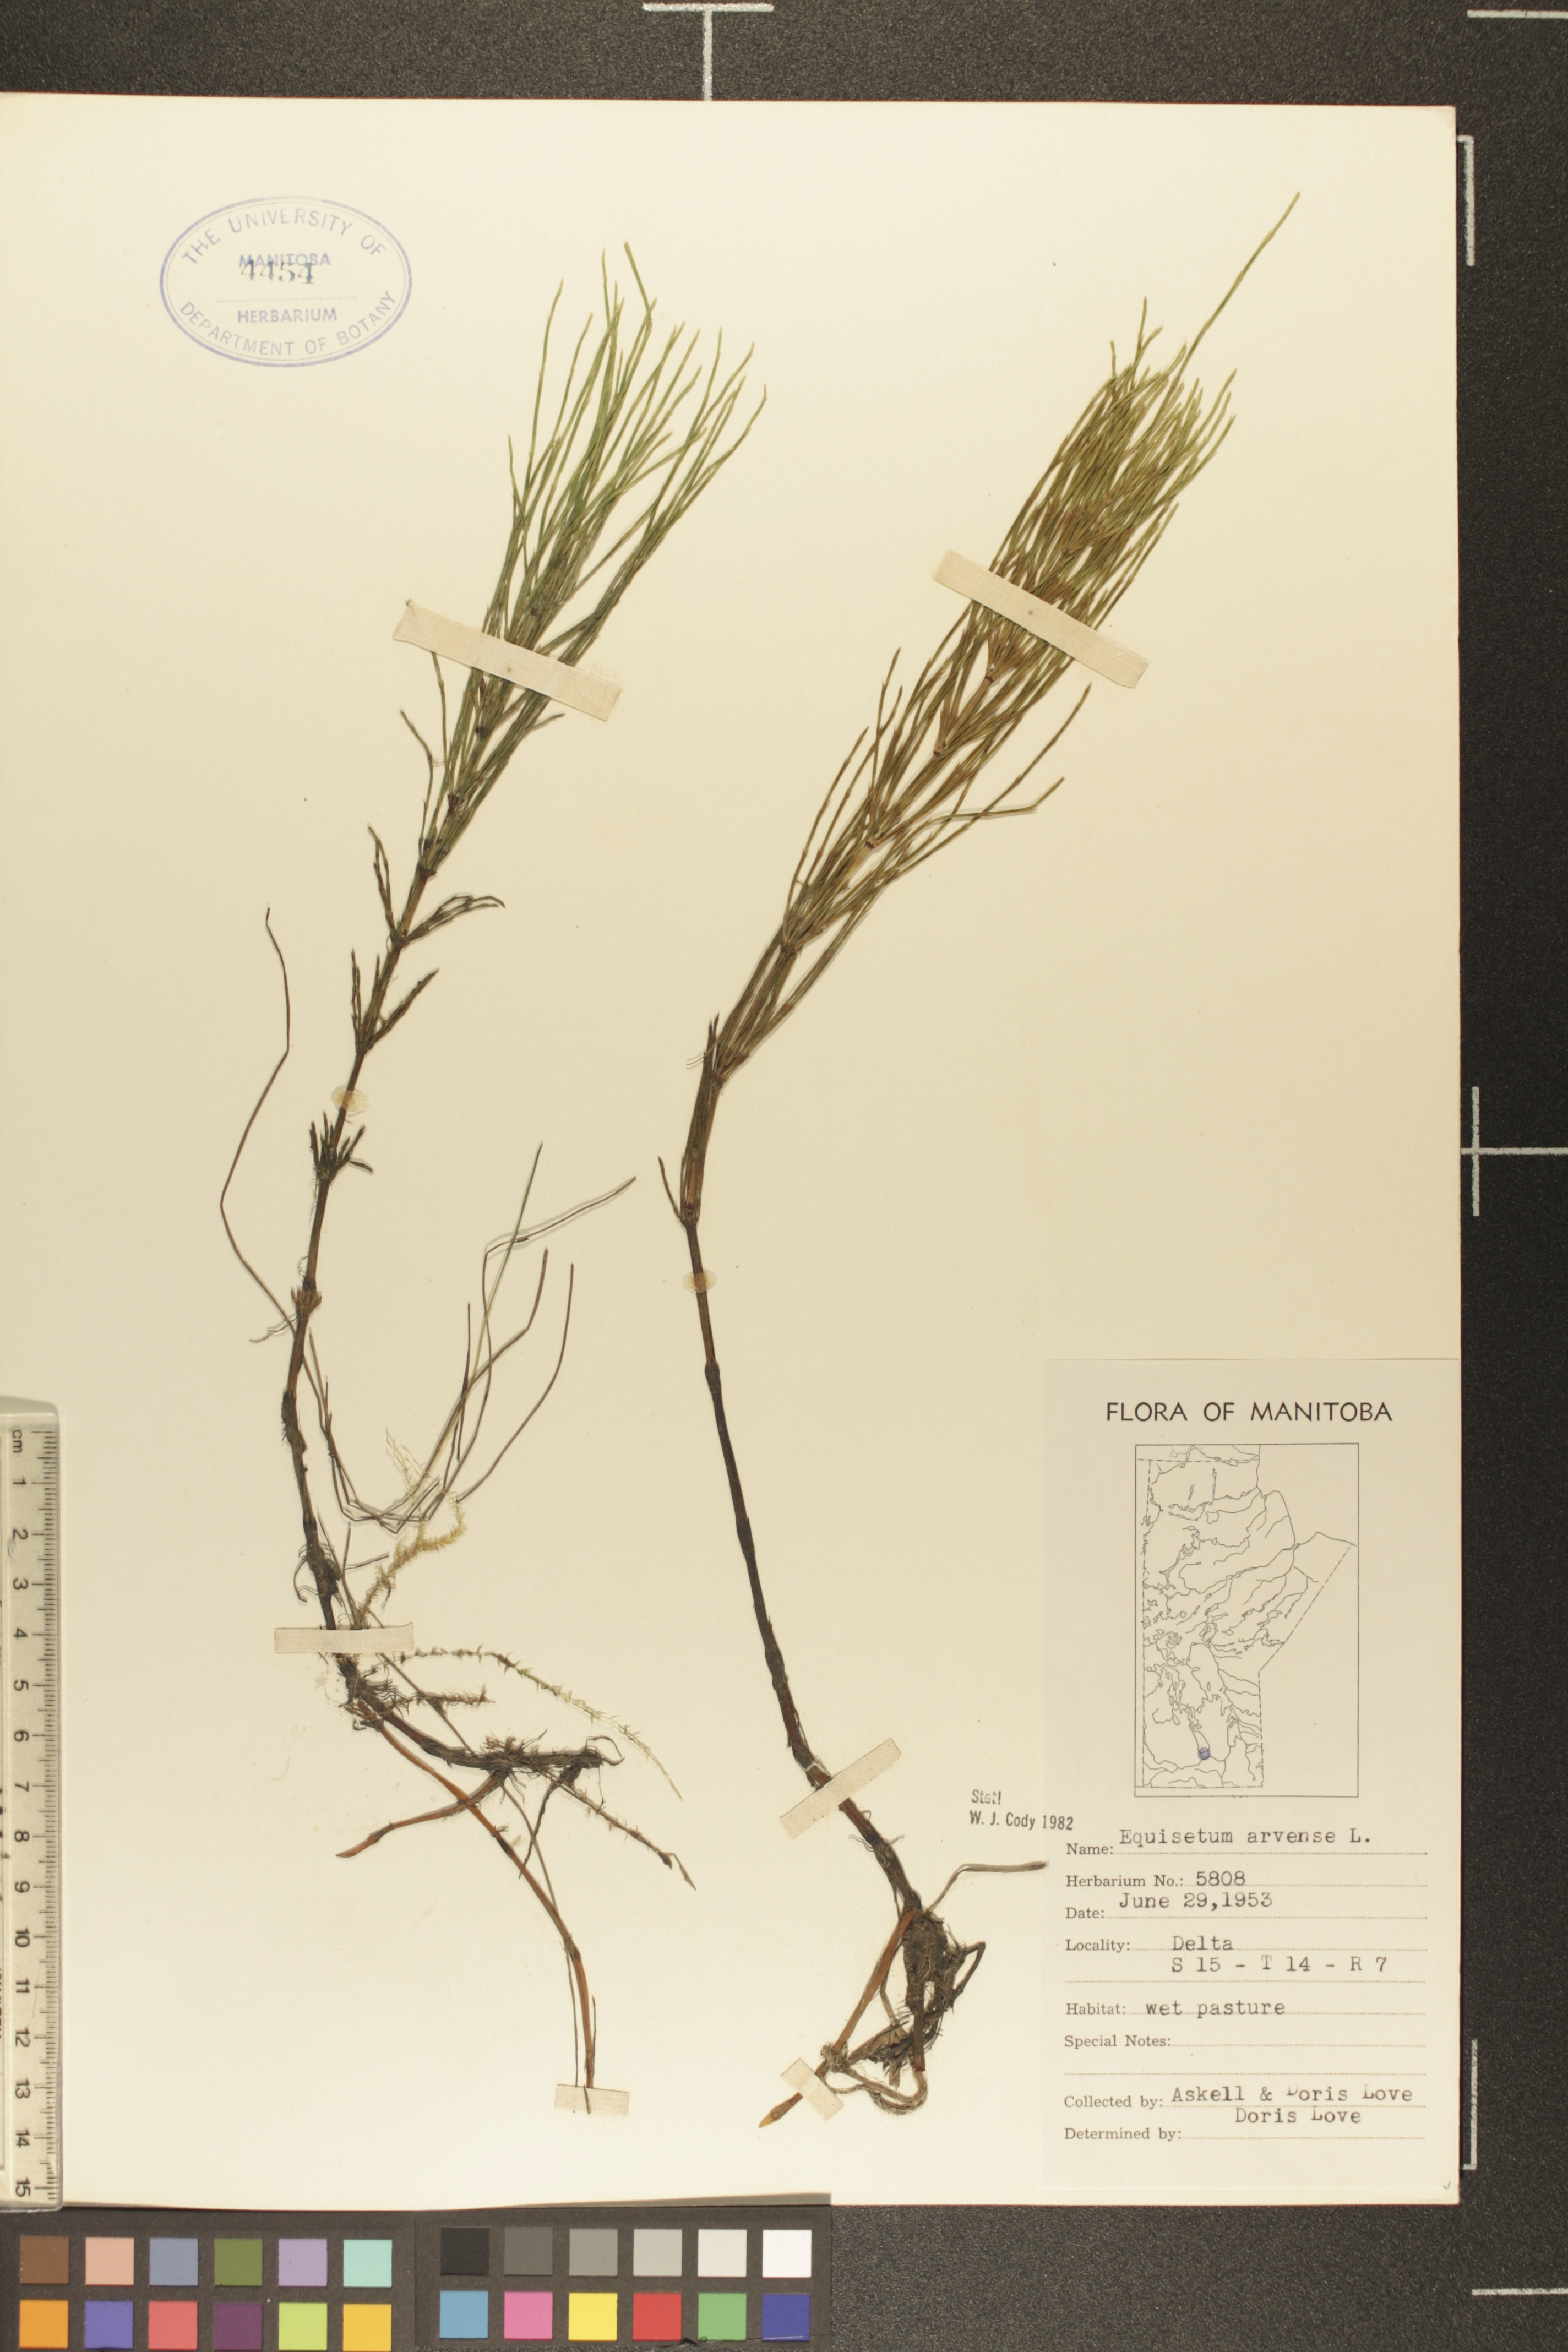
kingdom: Plantae
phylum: Tracheophyta
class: Polypodiopsida
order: Equisetales
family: Equisetaceae
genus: Equisetum
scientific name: Equisetum arvense
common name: Field horsetail
